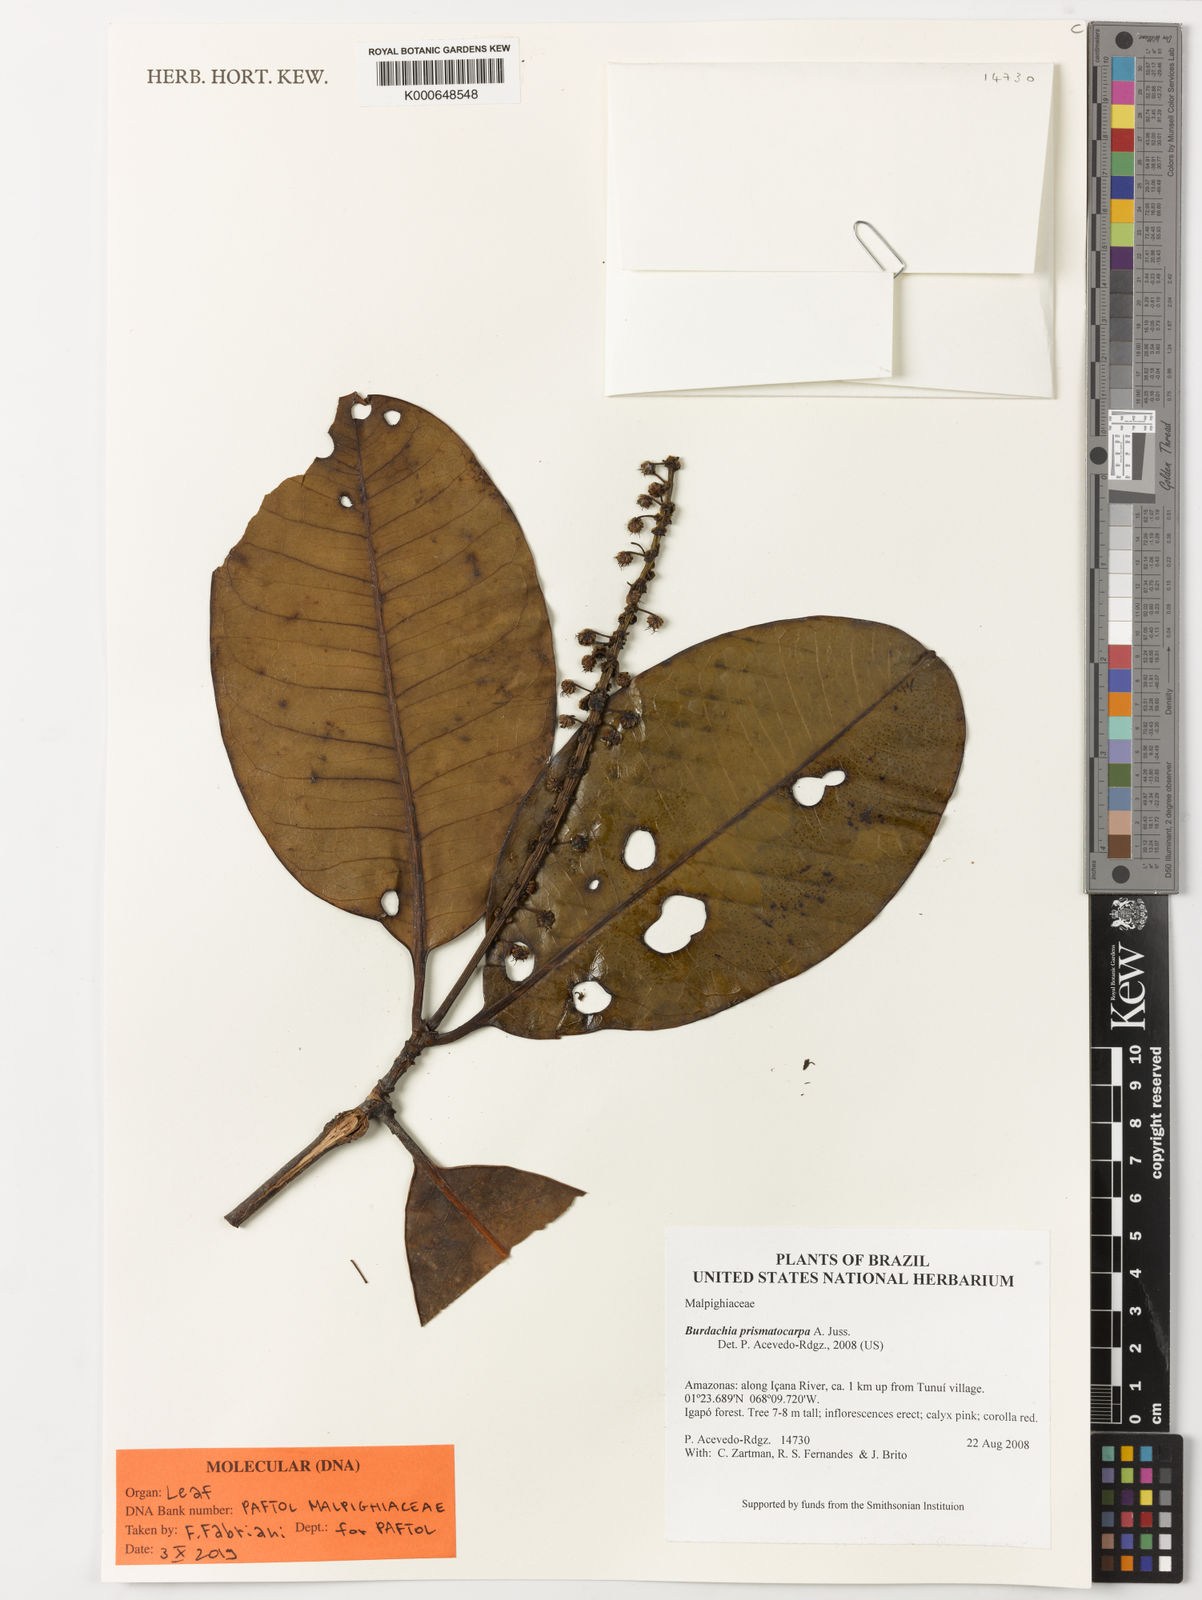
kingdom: Plantae
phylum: Tracheophyta
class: Magnoliopsida
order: Malpighiales
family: Malpighiaceae
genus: Burdachia
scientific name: Burdachia prismatocarpa
